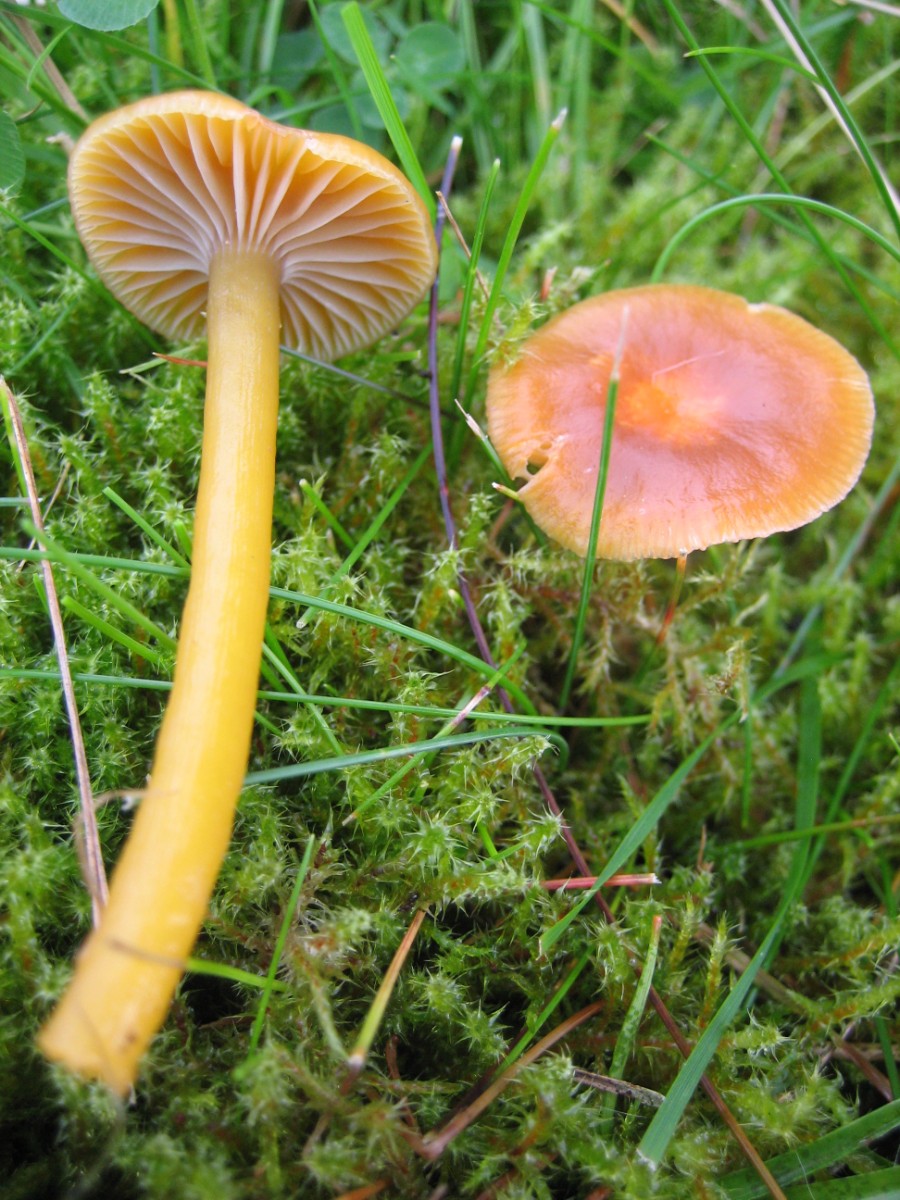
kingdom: Fungi
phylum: Basidiomycota
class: Agaricomycetes
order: Agaricales
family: Hygrophoraceae
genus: Gliophorus
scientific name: Gliophorus laetus
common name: brusk-vokshat
